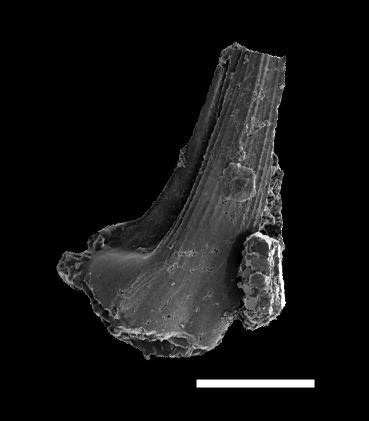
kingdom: Animalia
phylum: Chordata
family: Strachanognathidae
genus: Decoriconus
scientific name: Decoriconus
